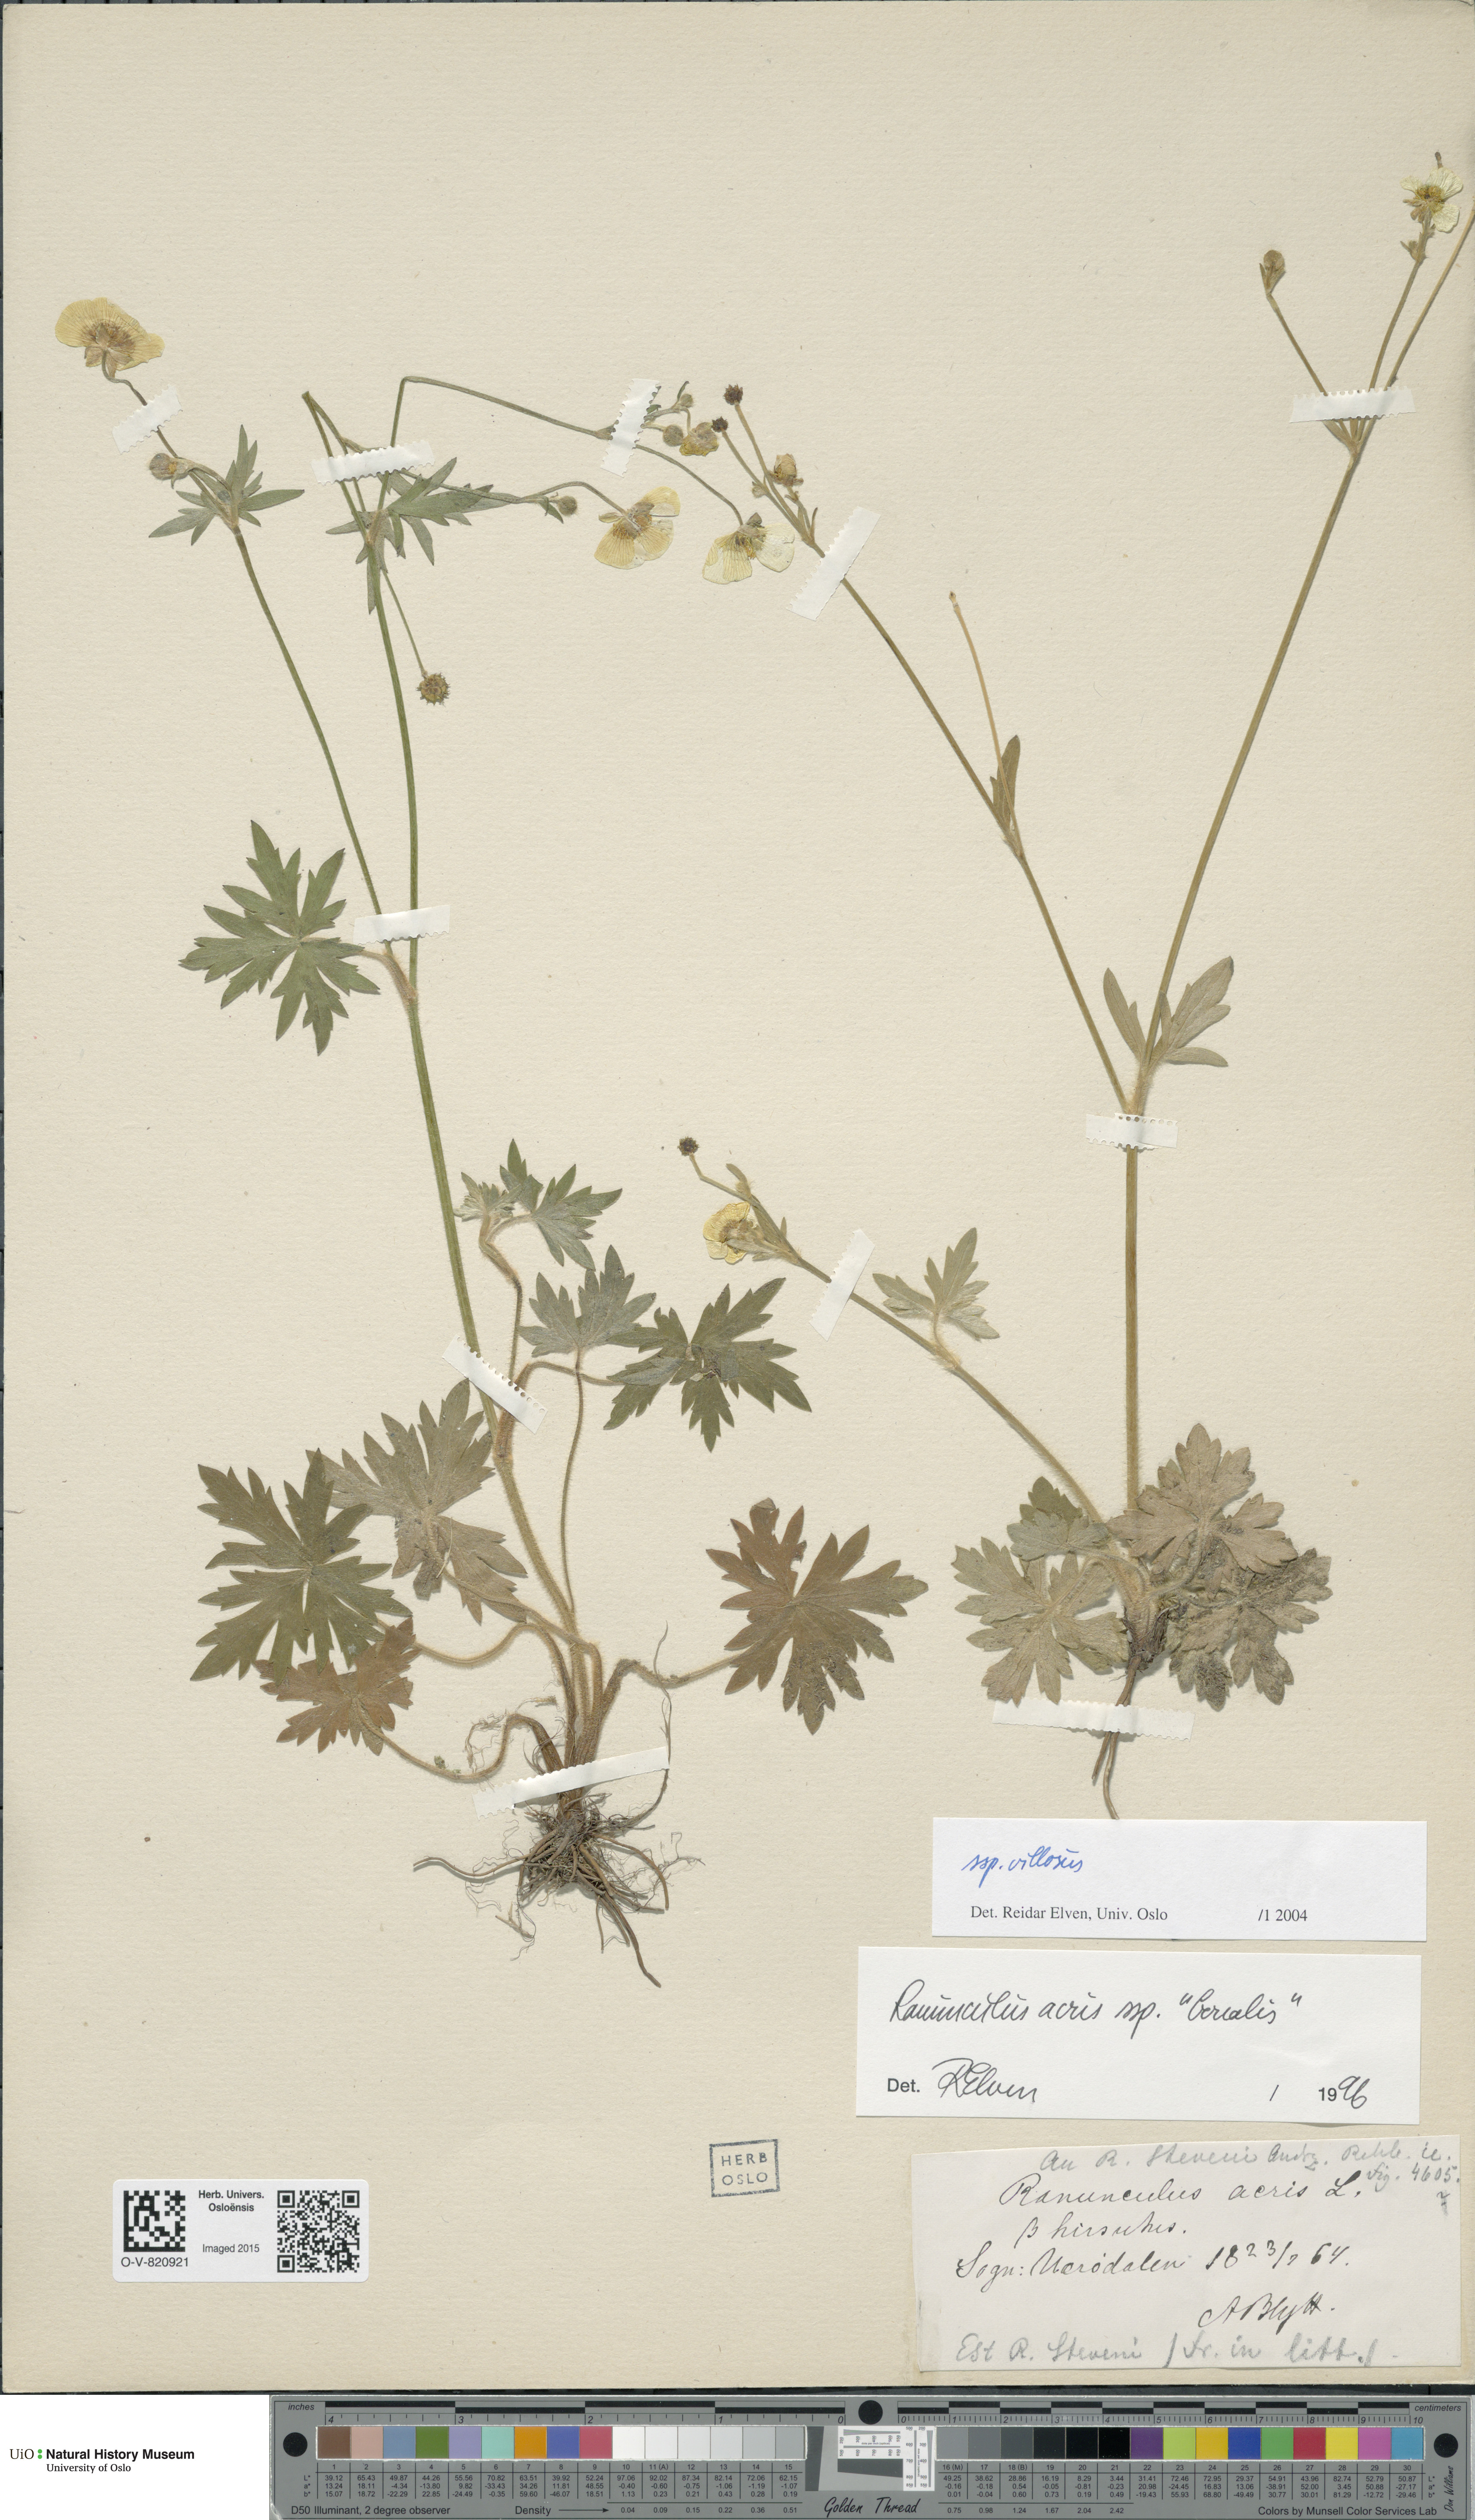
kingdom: Plantae
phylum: Tracheophyta
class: Magnoliopsida
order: Ranunculales
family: Ranunculaceae
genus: Ranunculus
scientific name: Ranunculus propinquus
